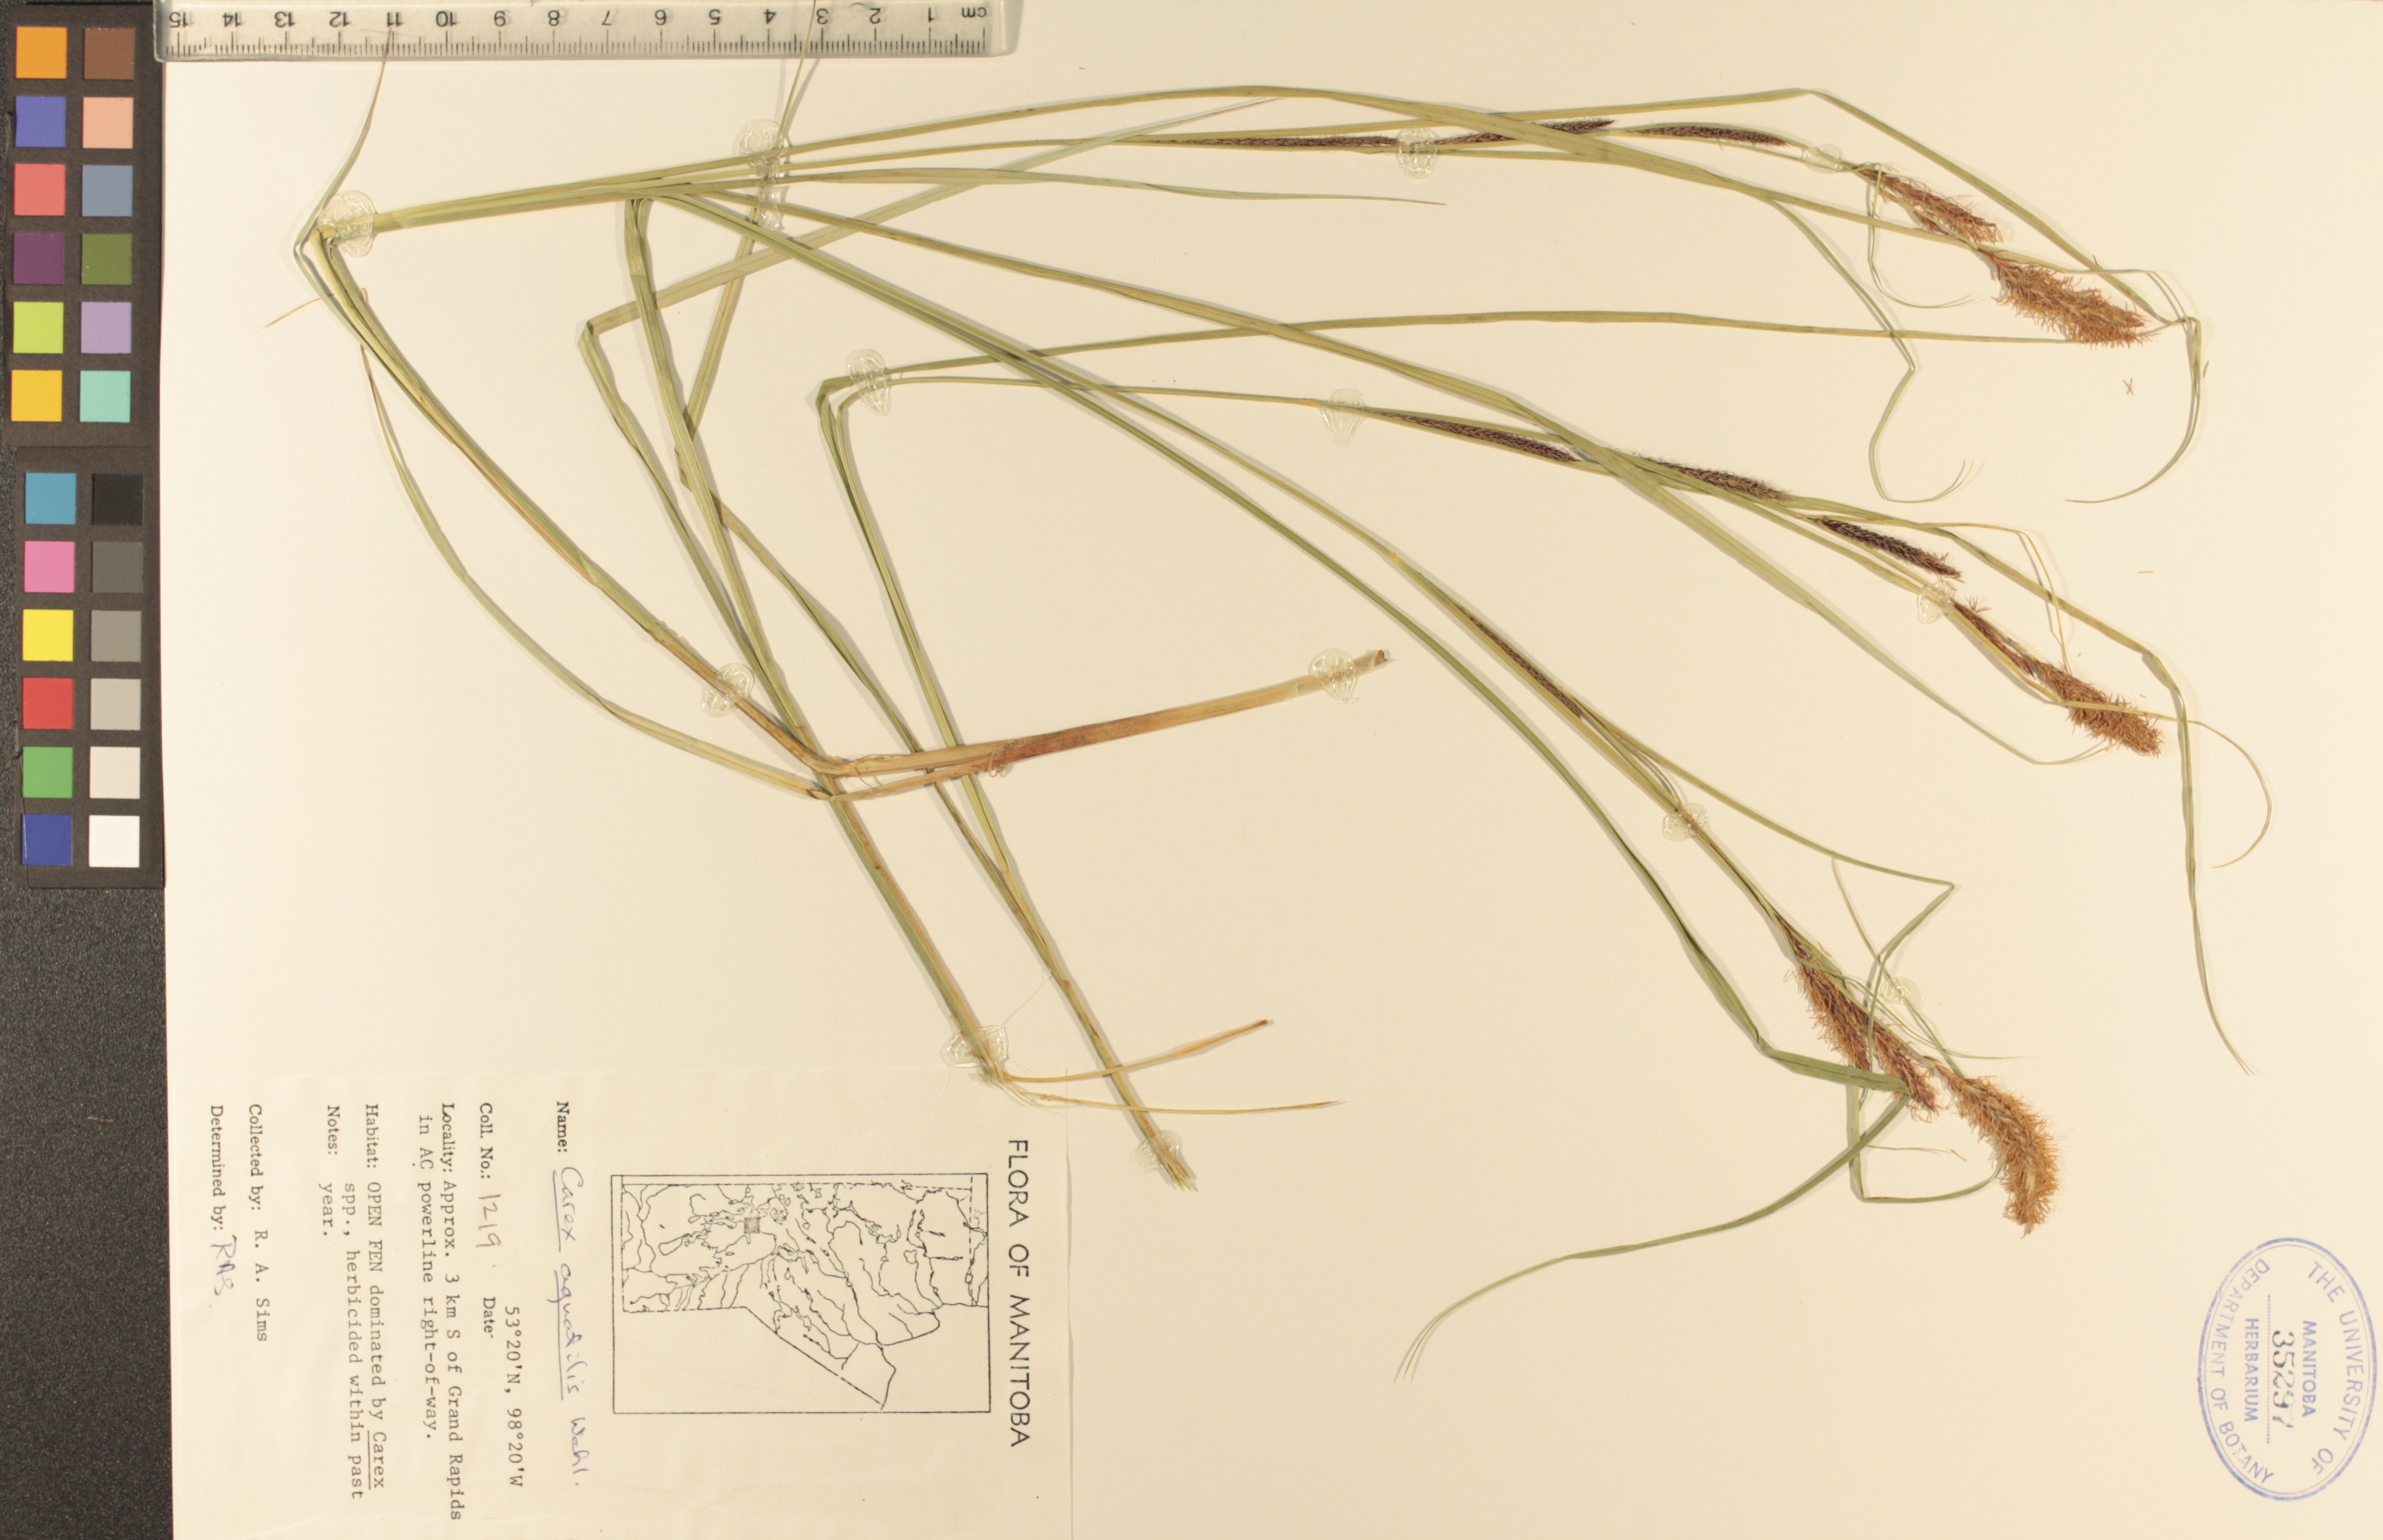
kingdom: Plantae
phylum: Tracheophyta
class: Liliopsida
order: Poales
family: Cyperaceae
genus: Carex
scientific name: Carex aquatilis
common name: Water sedge
